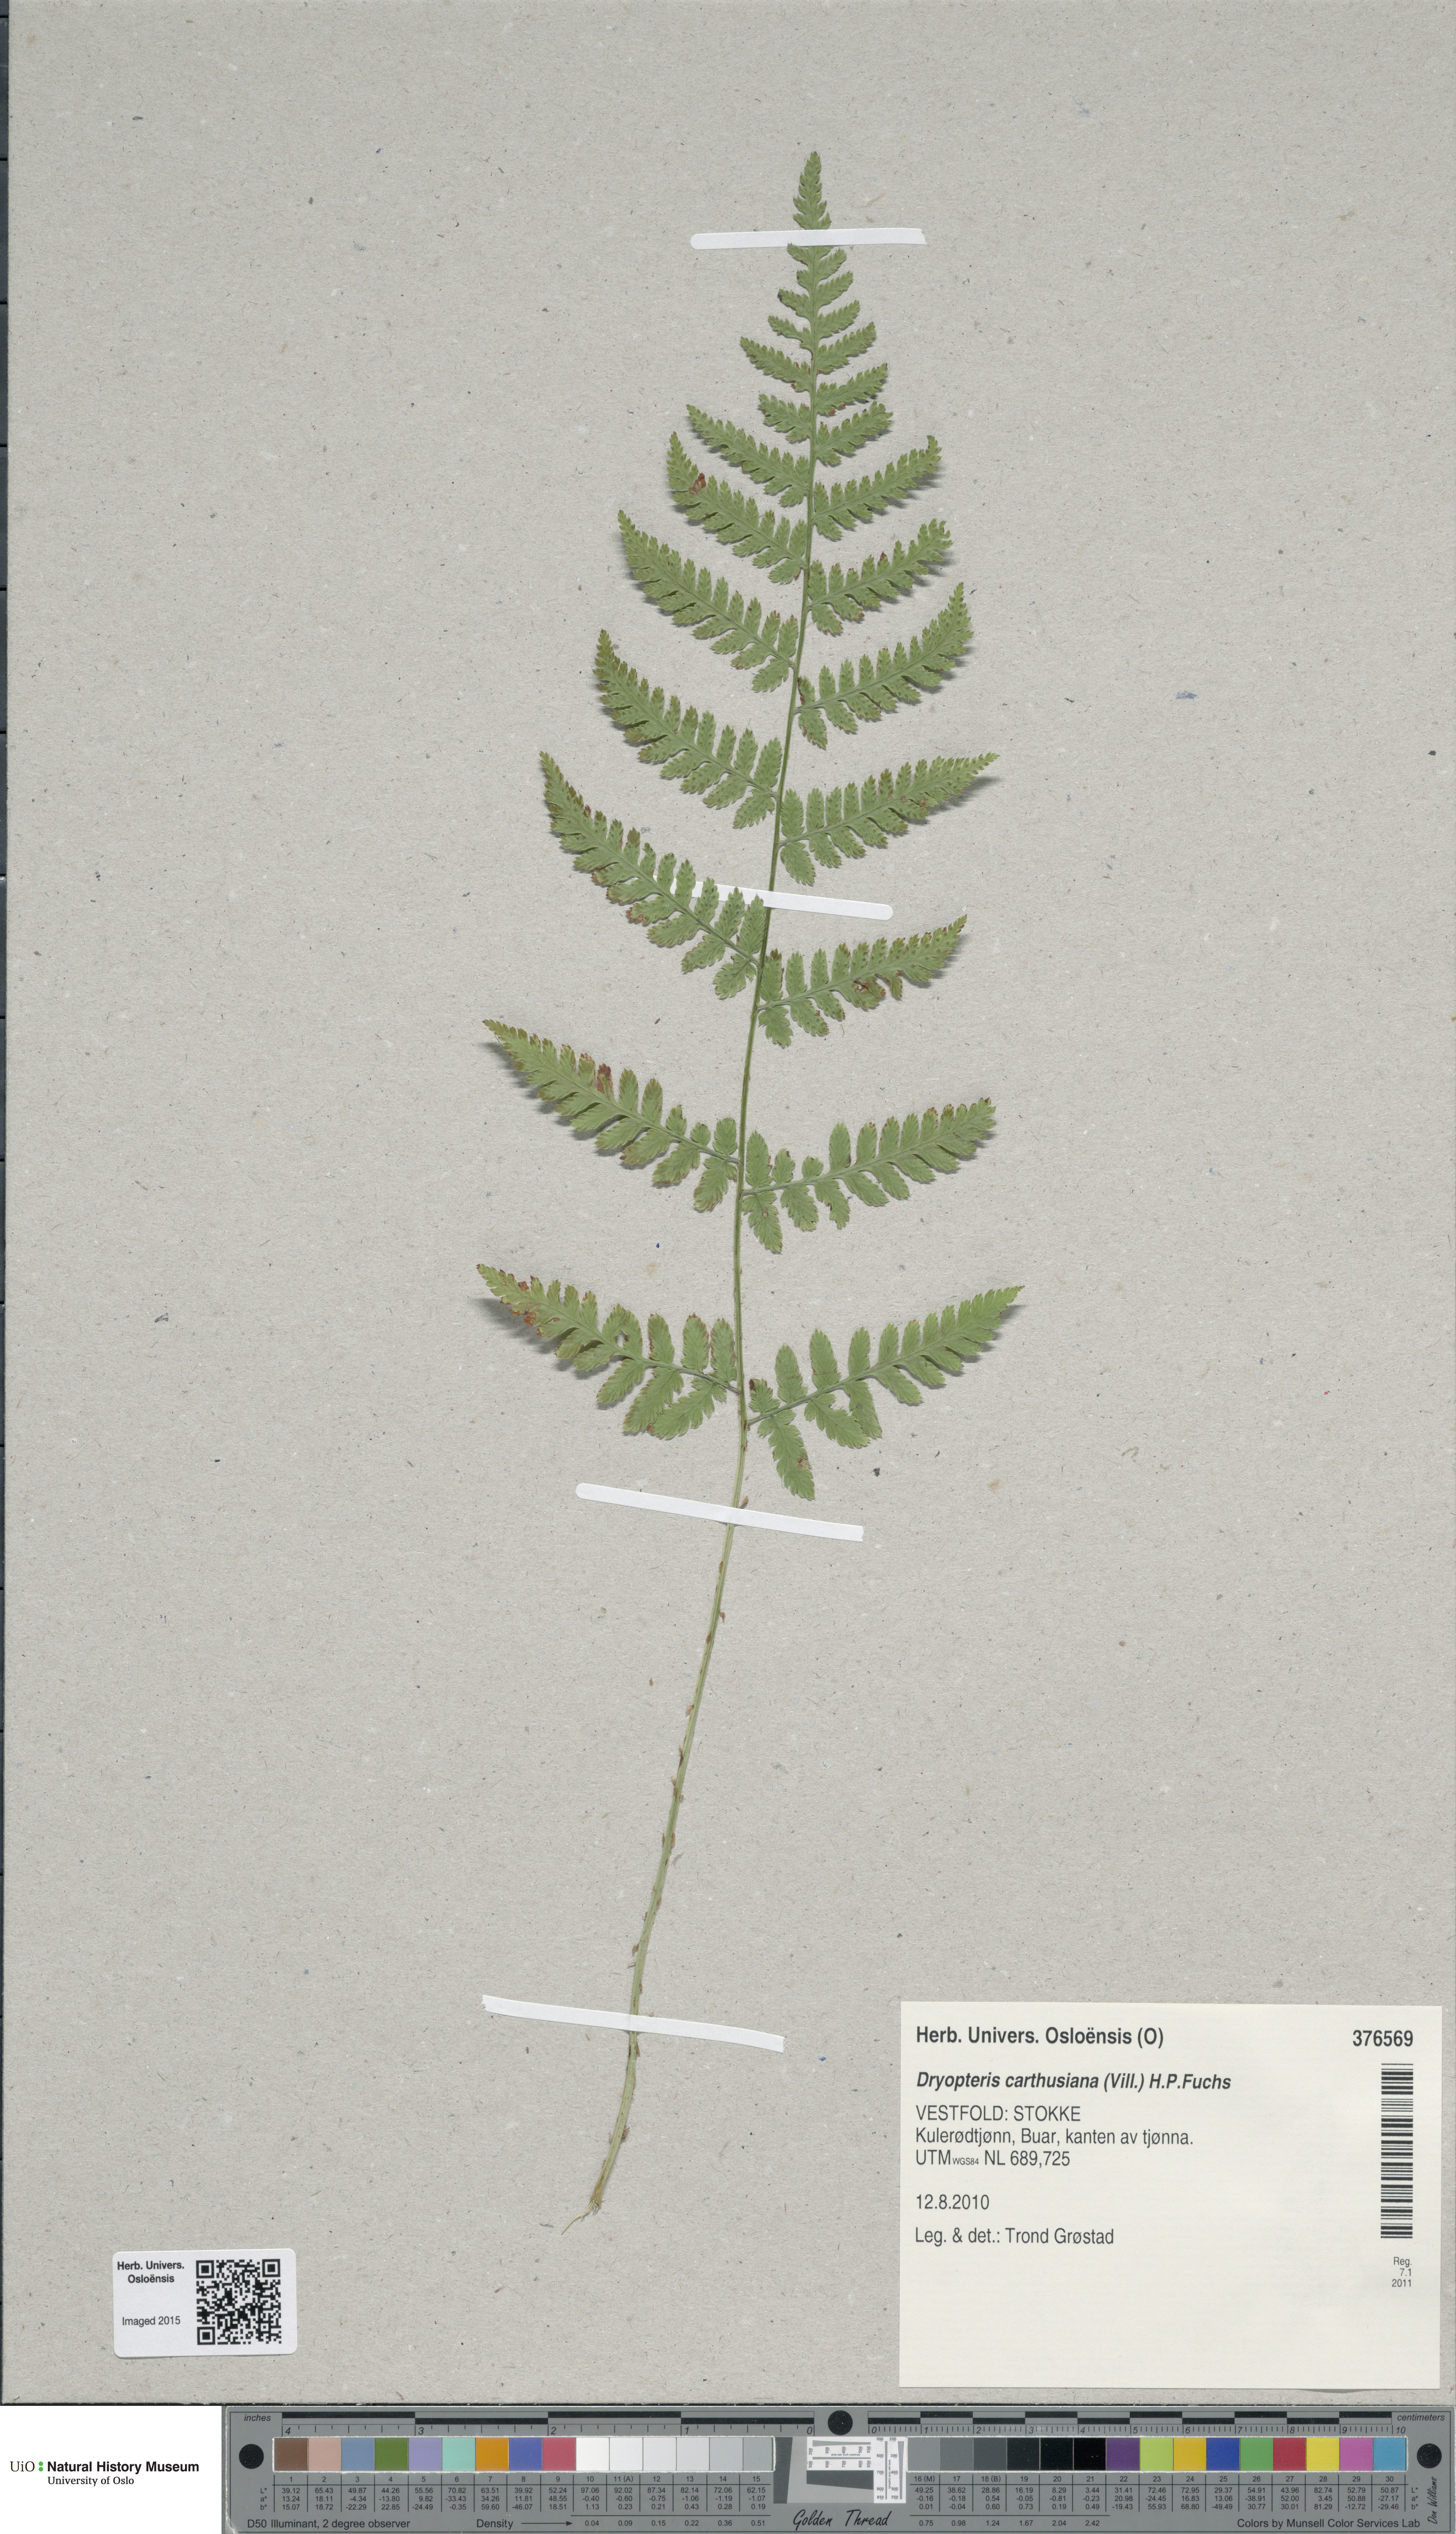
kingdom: Plantae
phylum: Tracheophyta
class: Polypodiopsida
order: Polypodiales
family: Dryopteridaceae
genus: Dryopteris
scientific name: Dryopteris carthusiana
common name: Narrow buckler-fern
